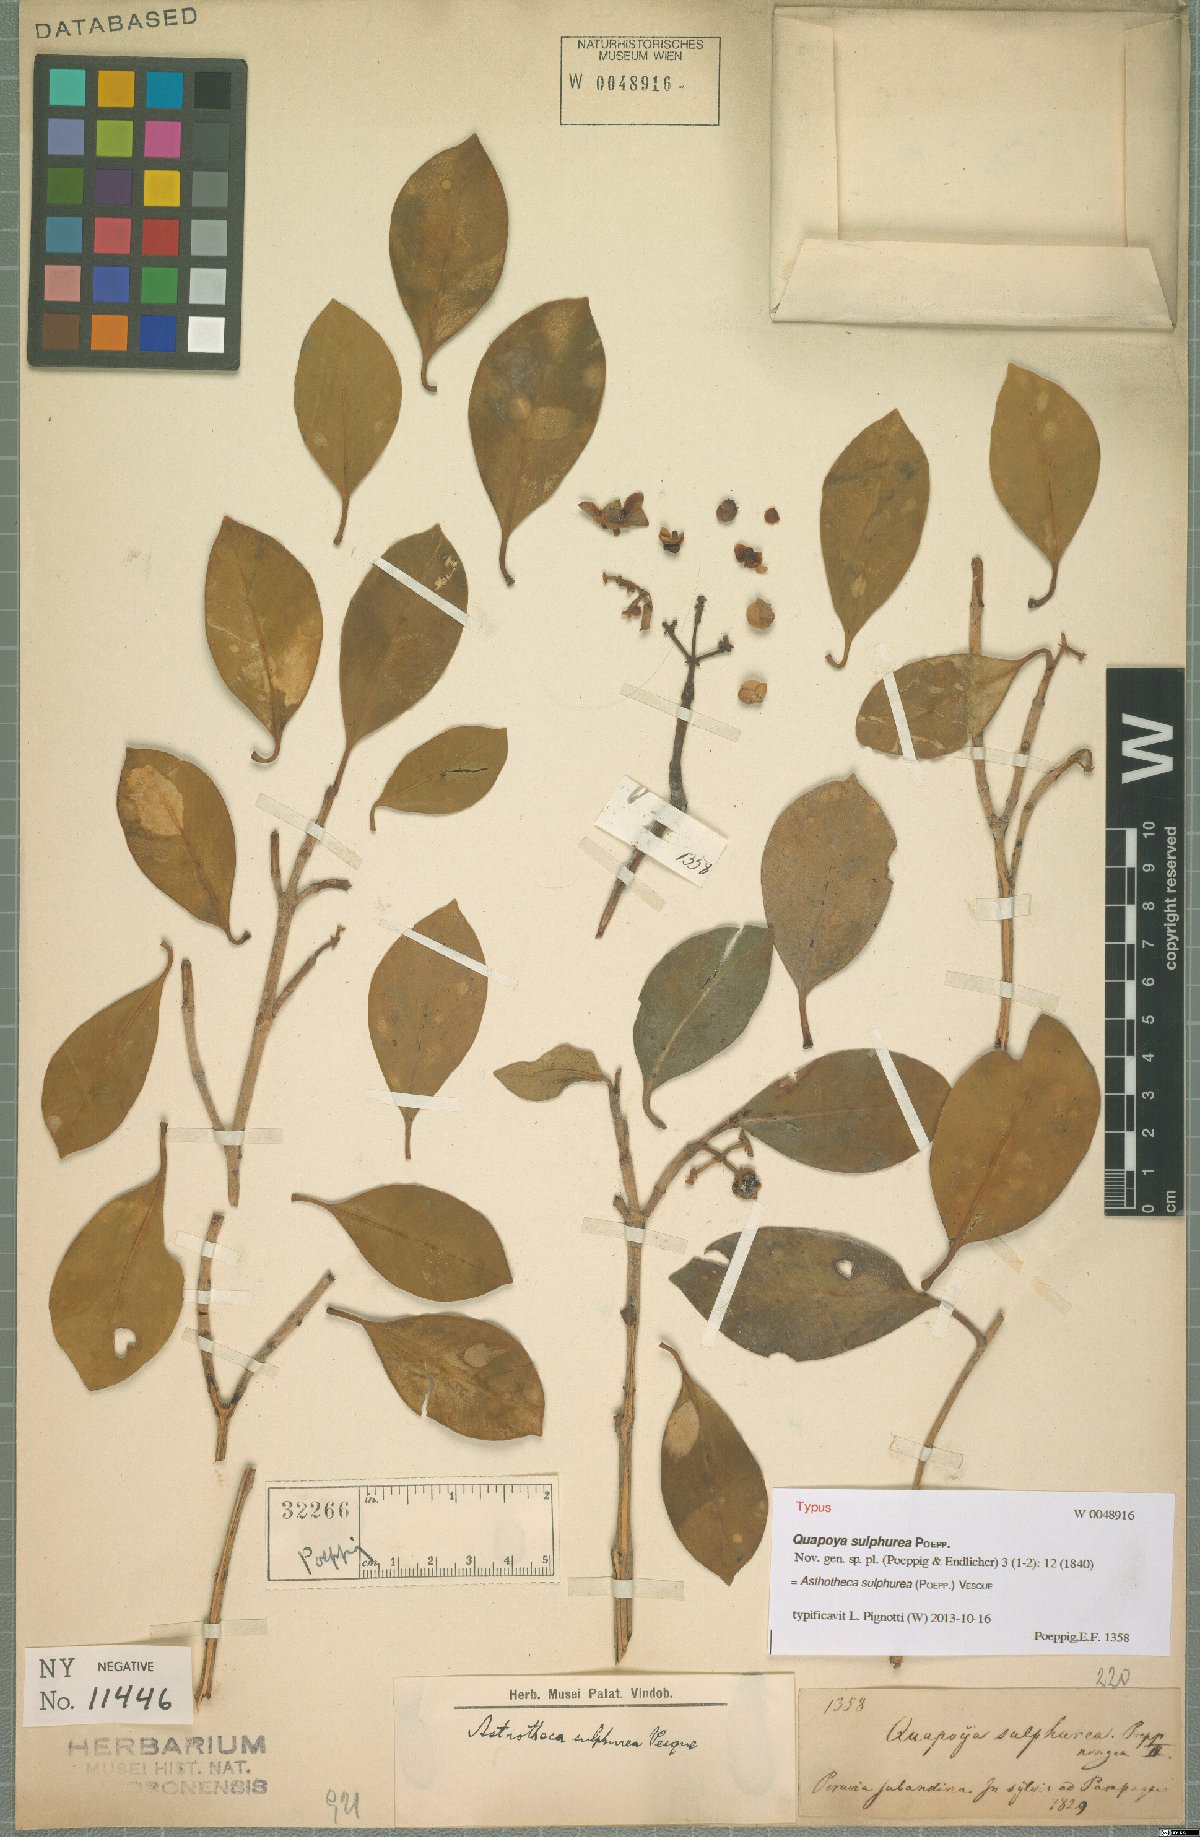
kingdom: Plantae
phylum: Tracheophyta
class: Magnoliopsida
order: Malpighiales
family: Clusiaceae
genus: Clusia
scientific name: Clusia sulphurea
